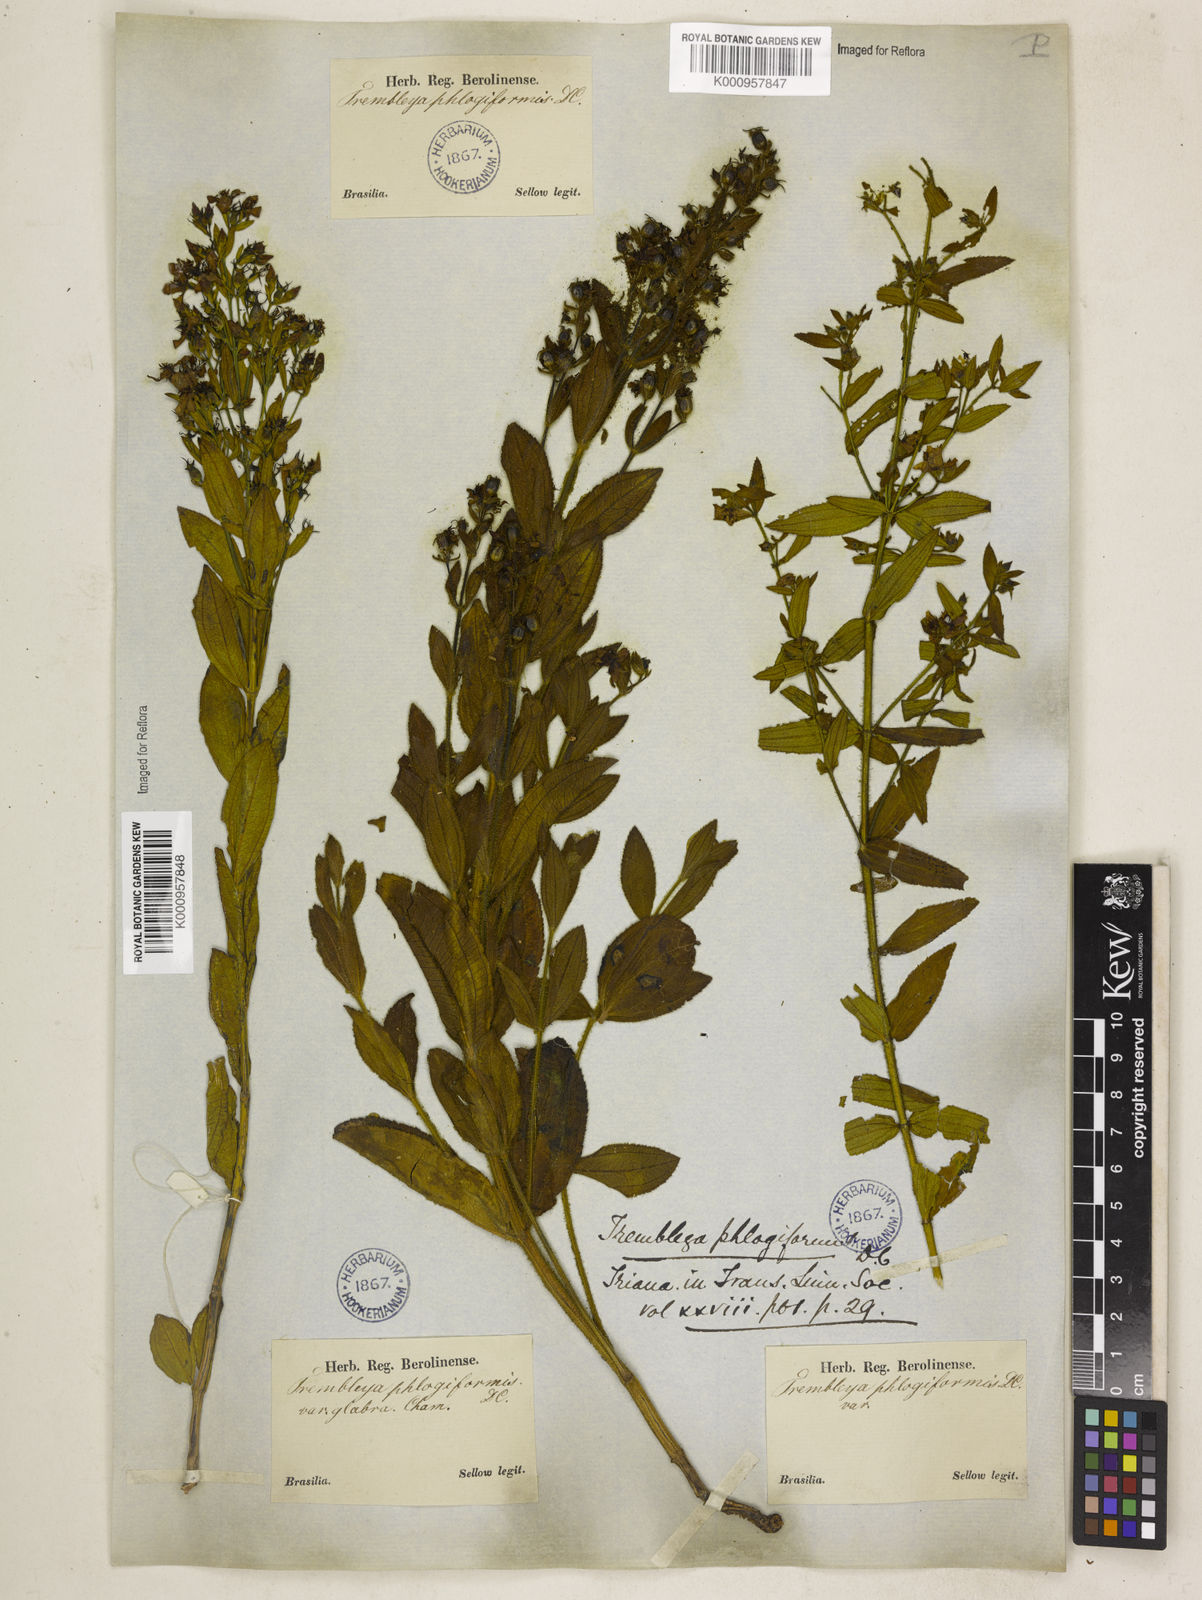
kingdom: Plantae
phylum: Tracheophyta
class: Magnoliopsida
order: Myrtales
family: Melastomataceae
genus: Microlicia
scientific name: Microlicia phlogiformis
